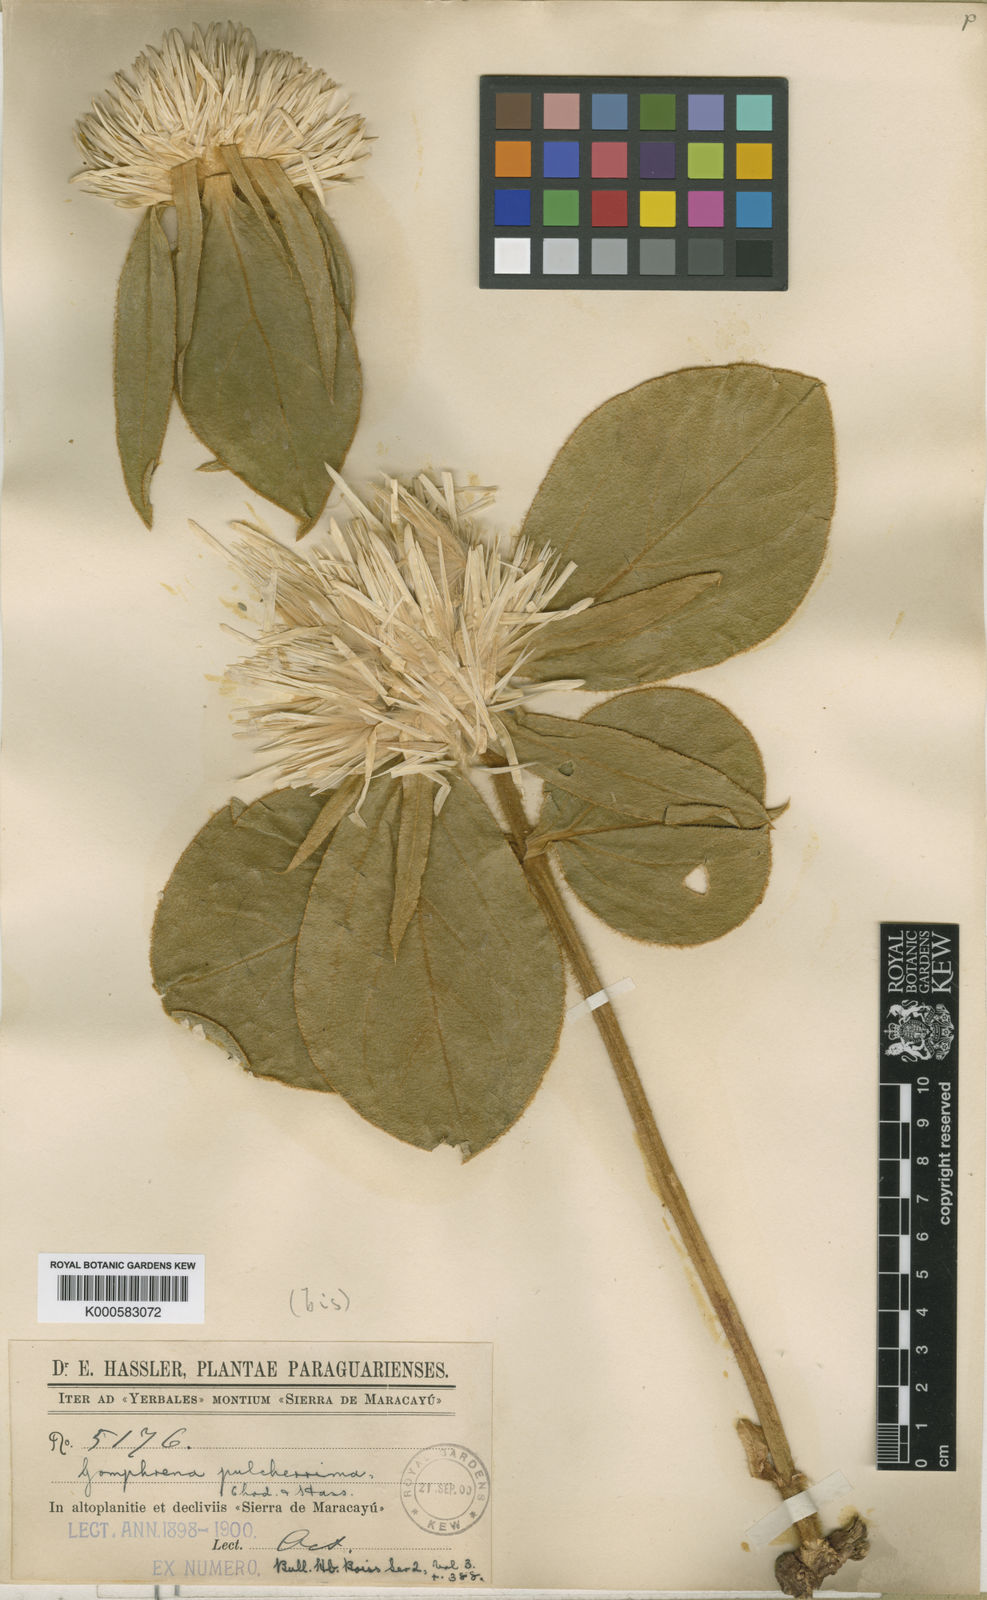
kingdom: Plantae
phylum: Tracheophyta
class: Magnoliopsida
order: Caryophyllales
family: Amaranthaceae
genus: Gomphrena
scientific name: Gomphrena macrocephala
